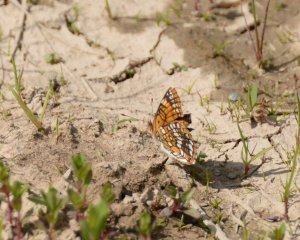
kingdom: Animalia
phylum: Arthropoda
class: Insecta
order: Lepidoptera
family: Nymphalidae
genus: Chlosyne
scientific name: Chlosyne harrisii
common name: Harris's Checkerspot
